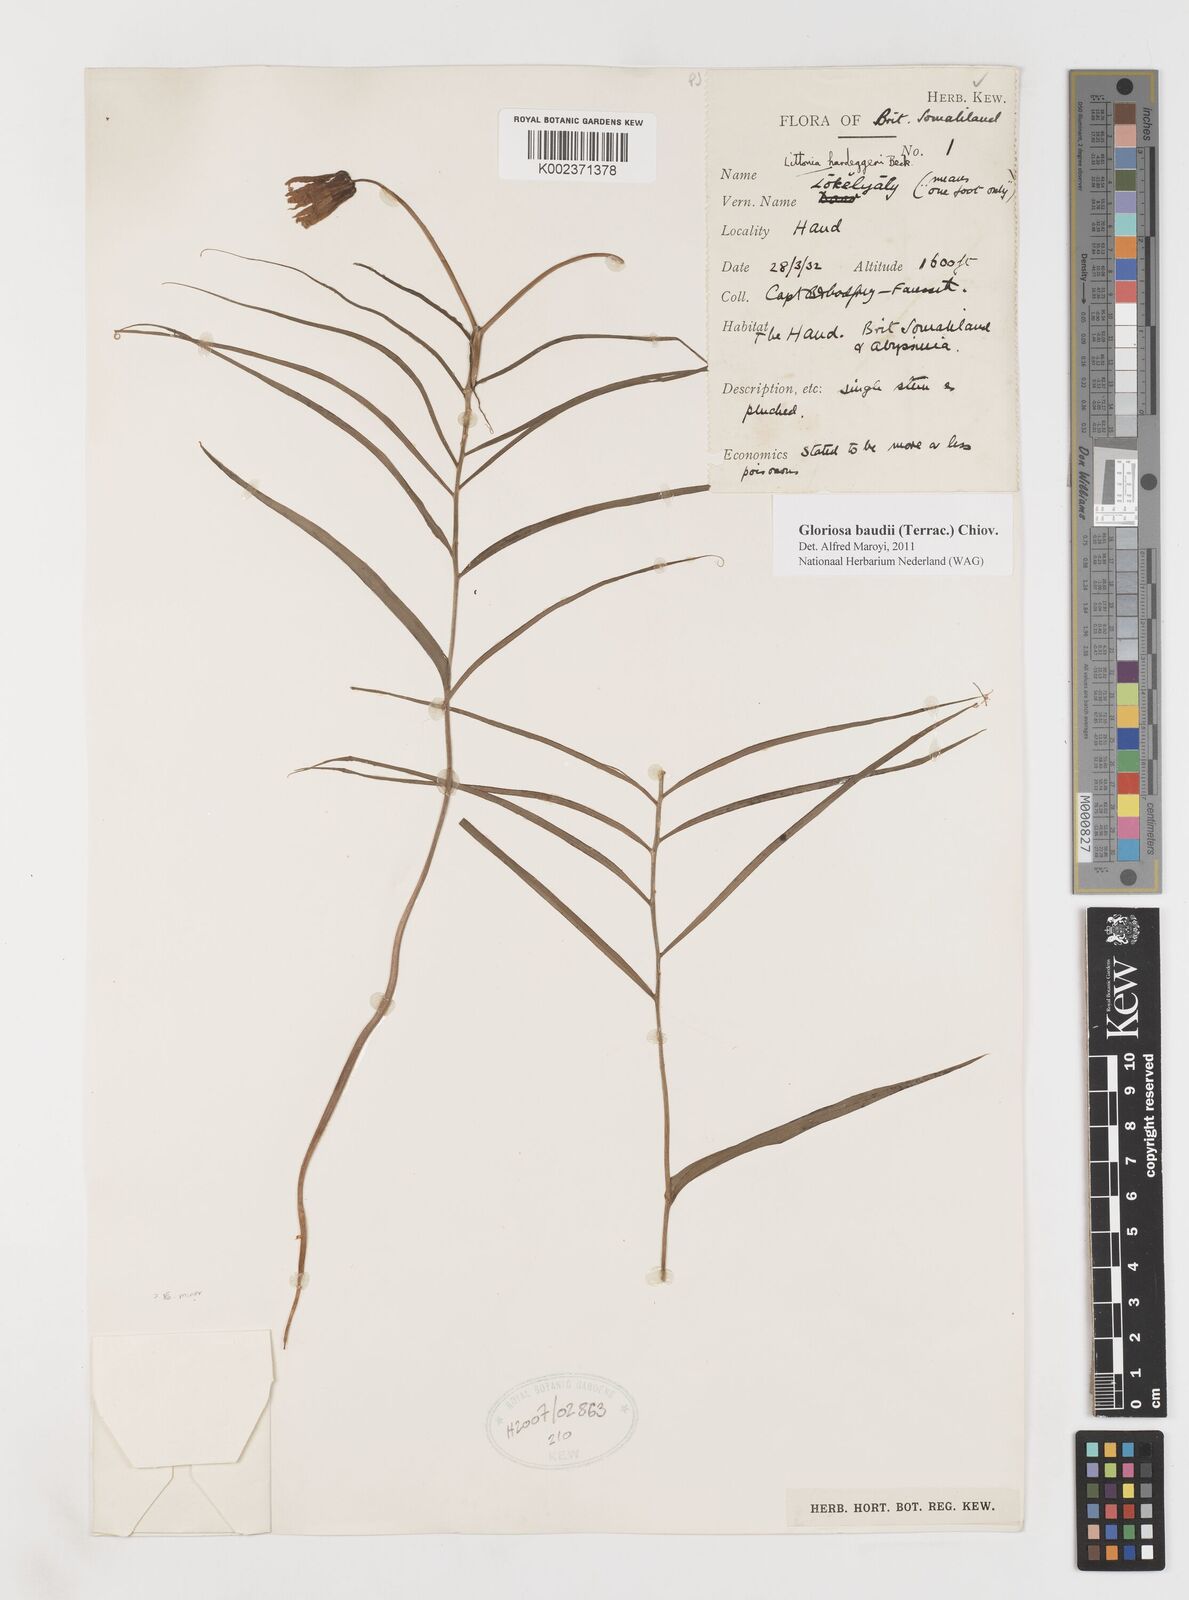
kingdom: Plantae
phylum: Tracheophyta
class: Liliopsida
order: Liliales
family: Colchicaceae
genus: Gloriosa
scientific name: Gloriosa baudii
